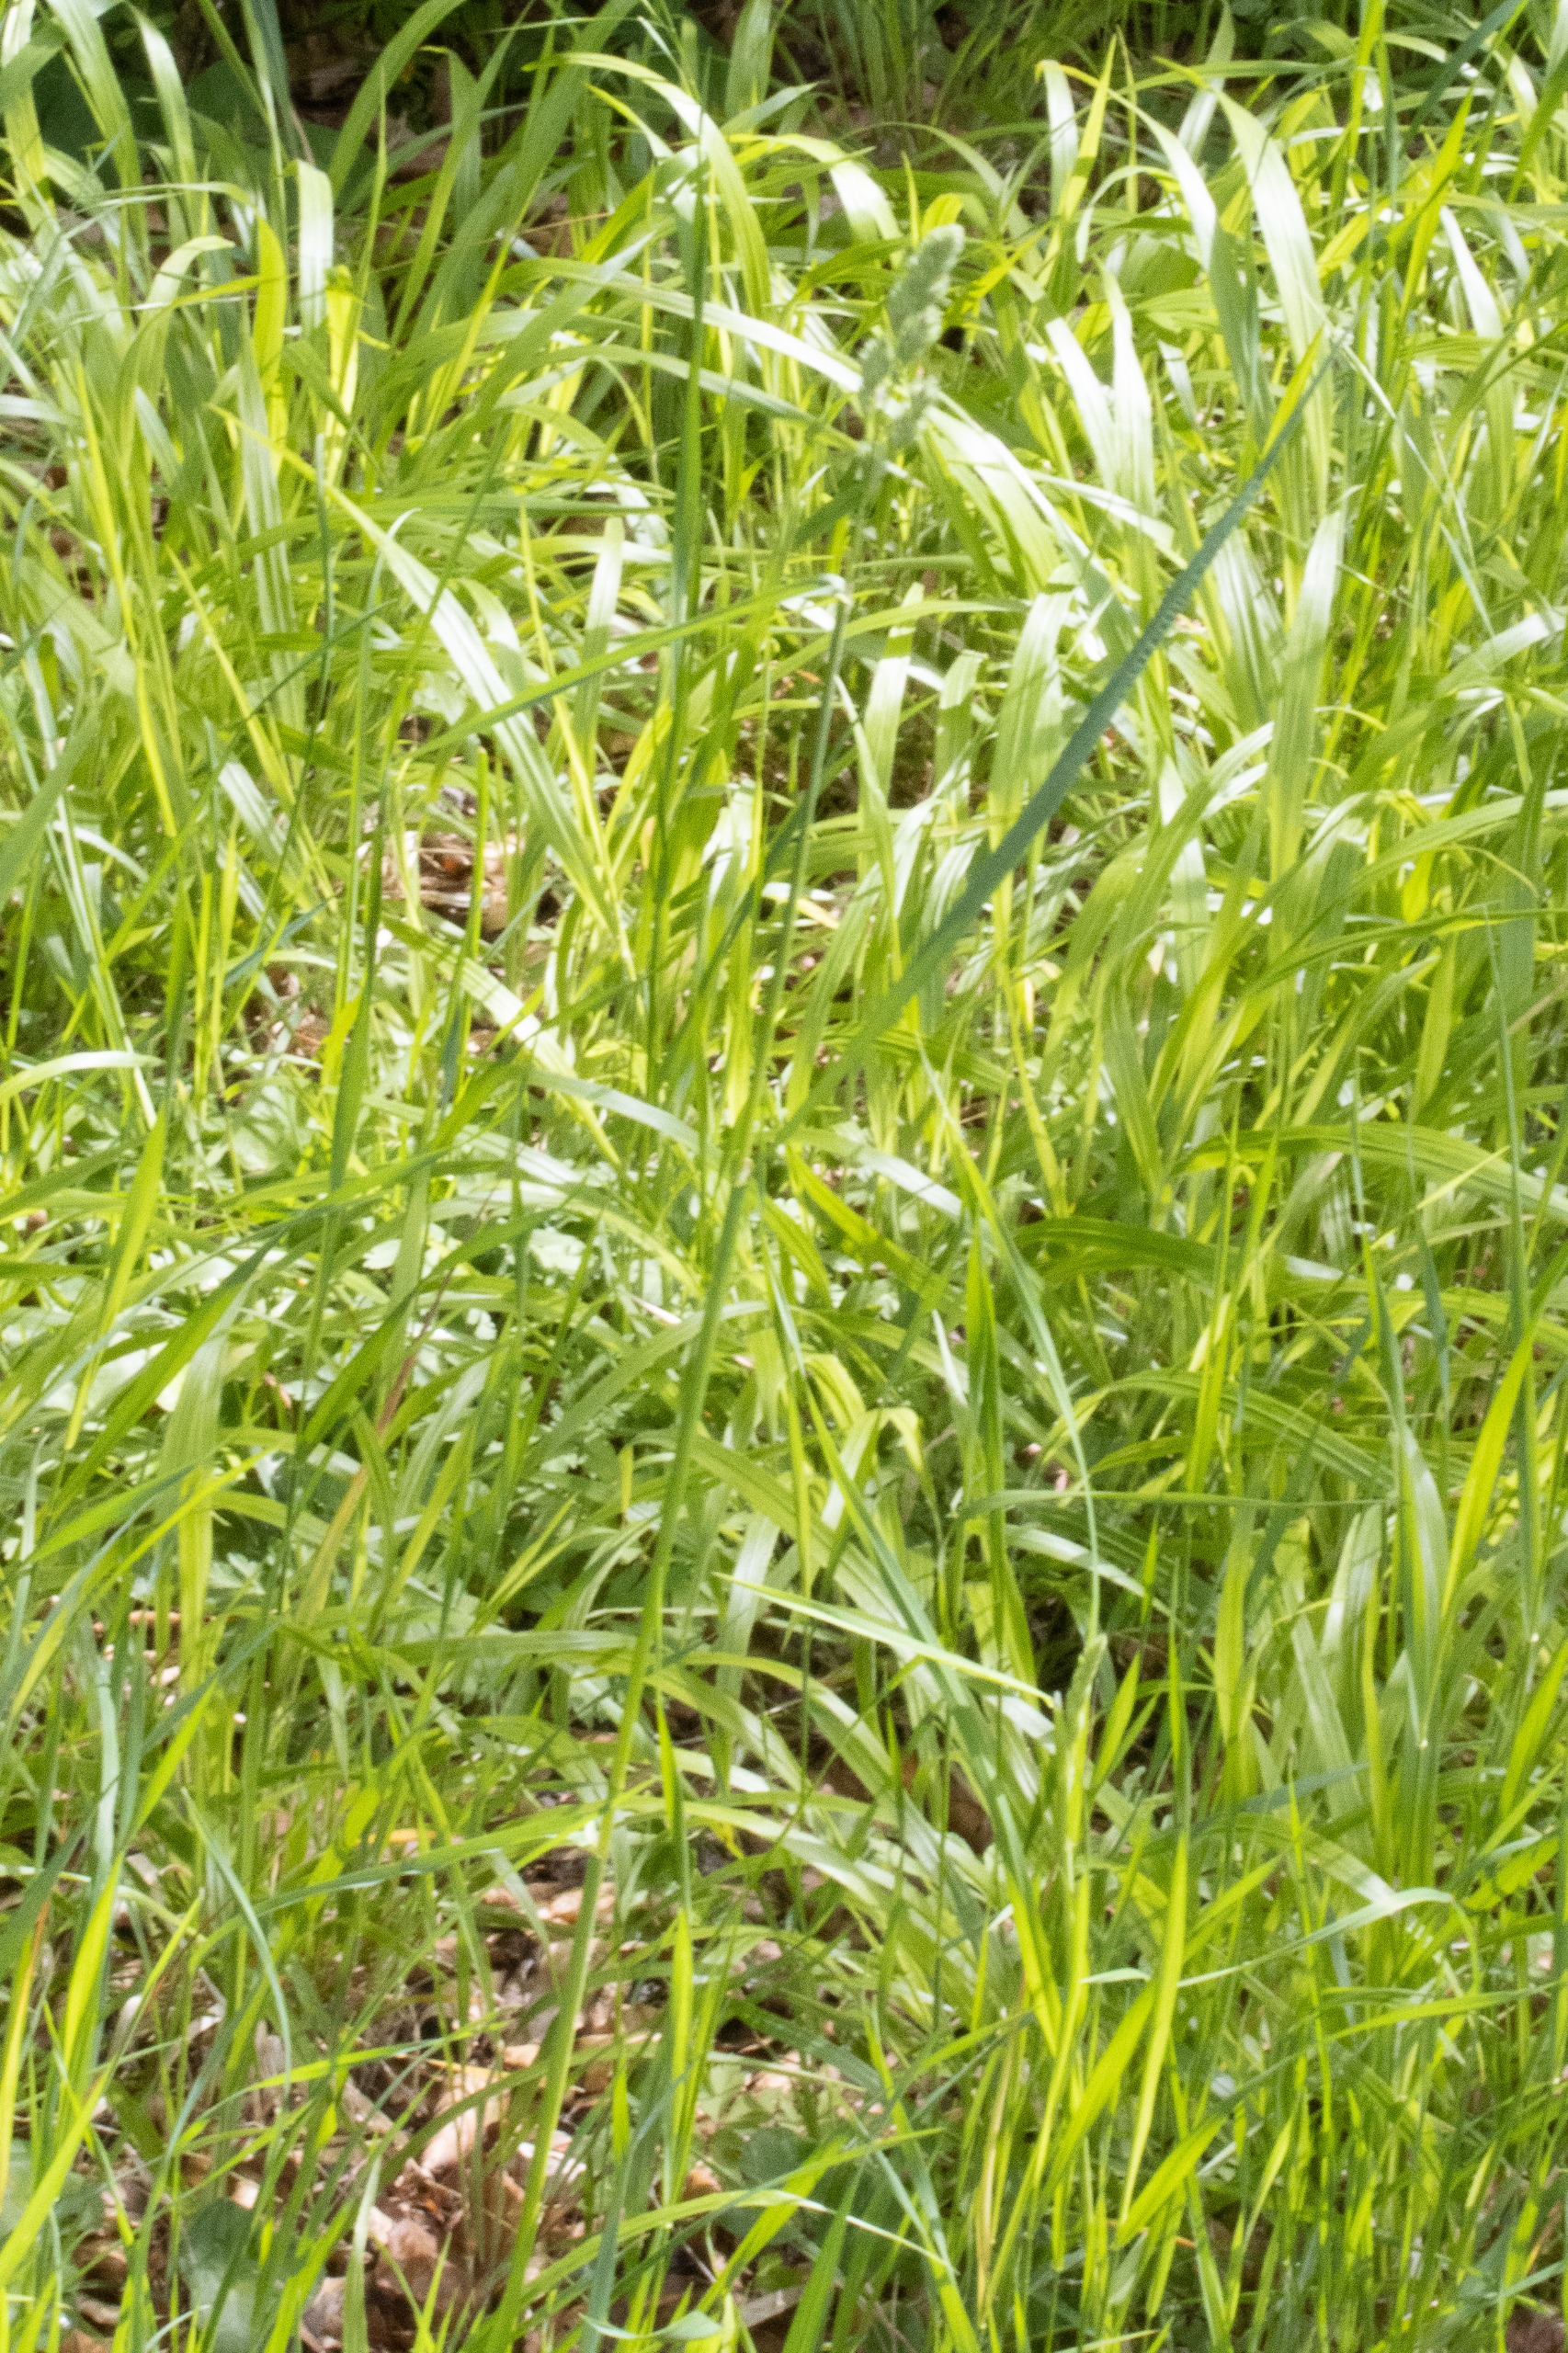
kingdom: Plantae
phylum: Tracheophyta
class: Liliopsida
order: Poales
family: Poaceae
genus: Dactylis
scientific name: Dactylis glomerata
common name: Almindelig hundegræs
